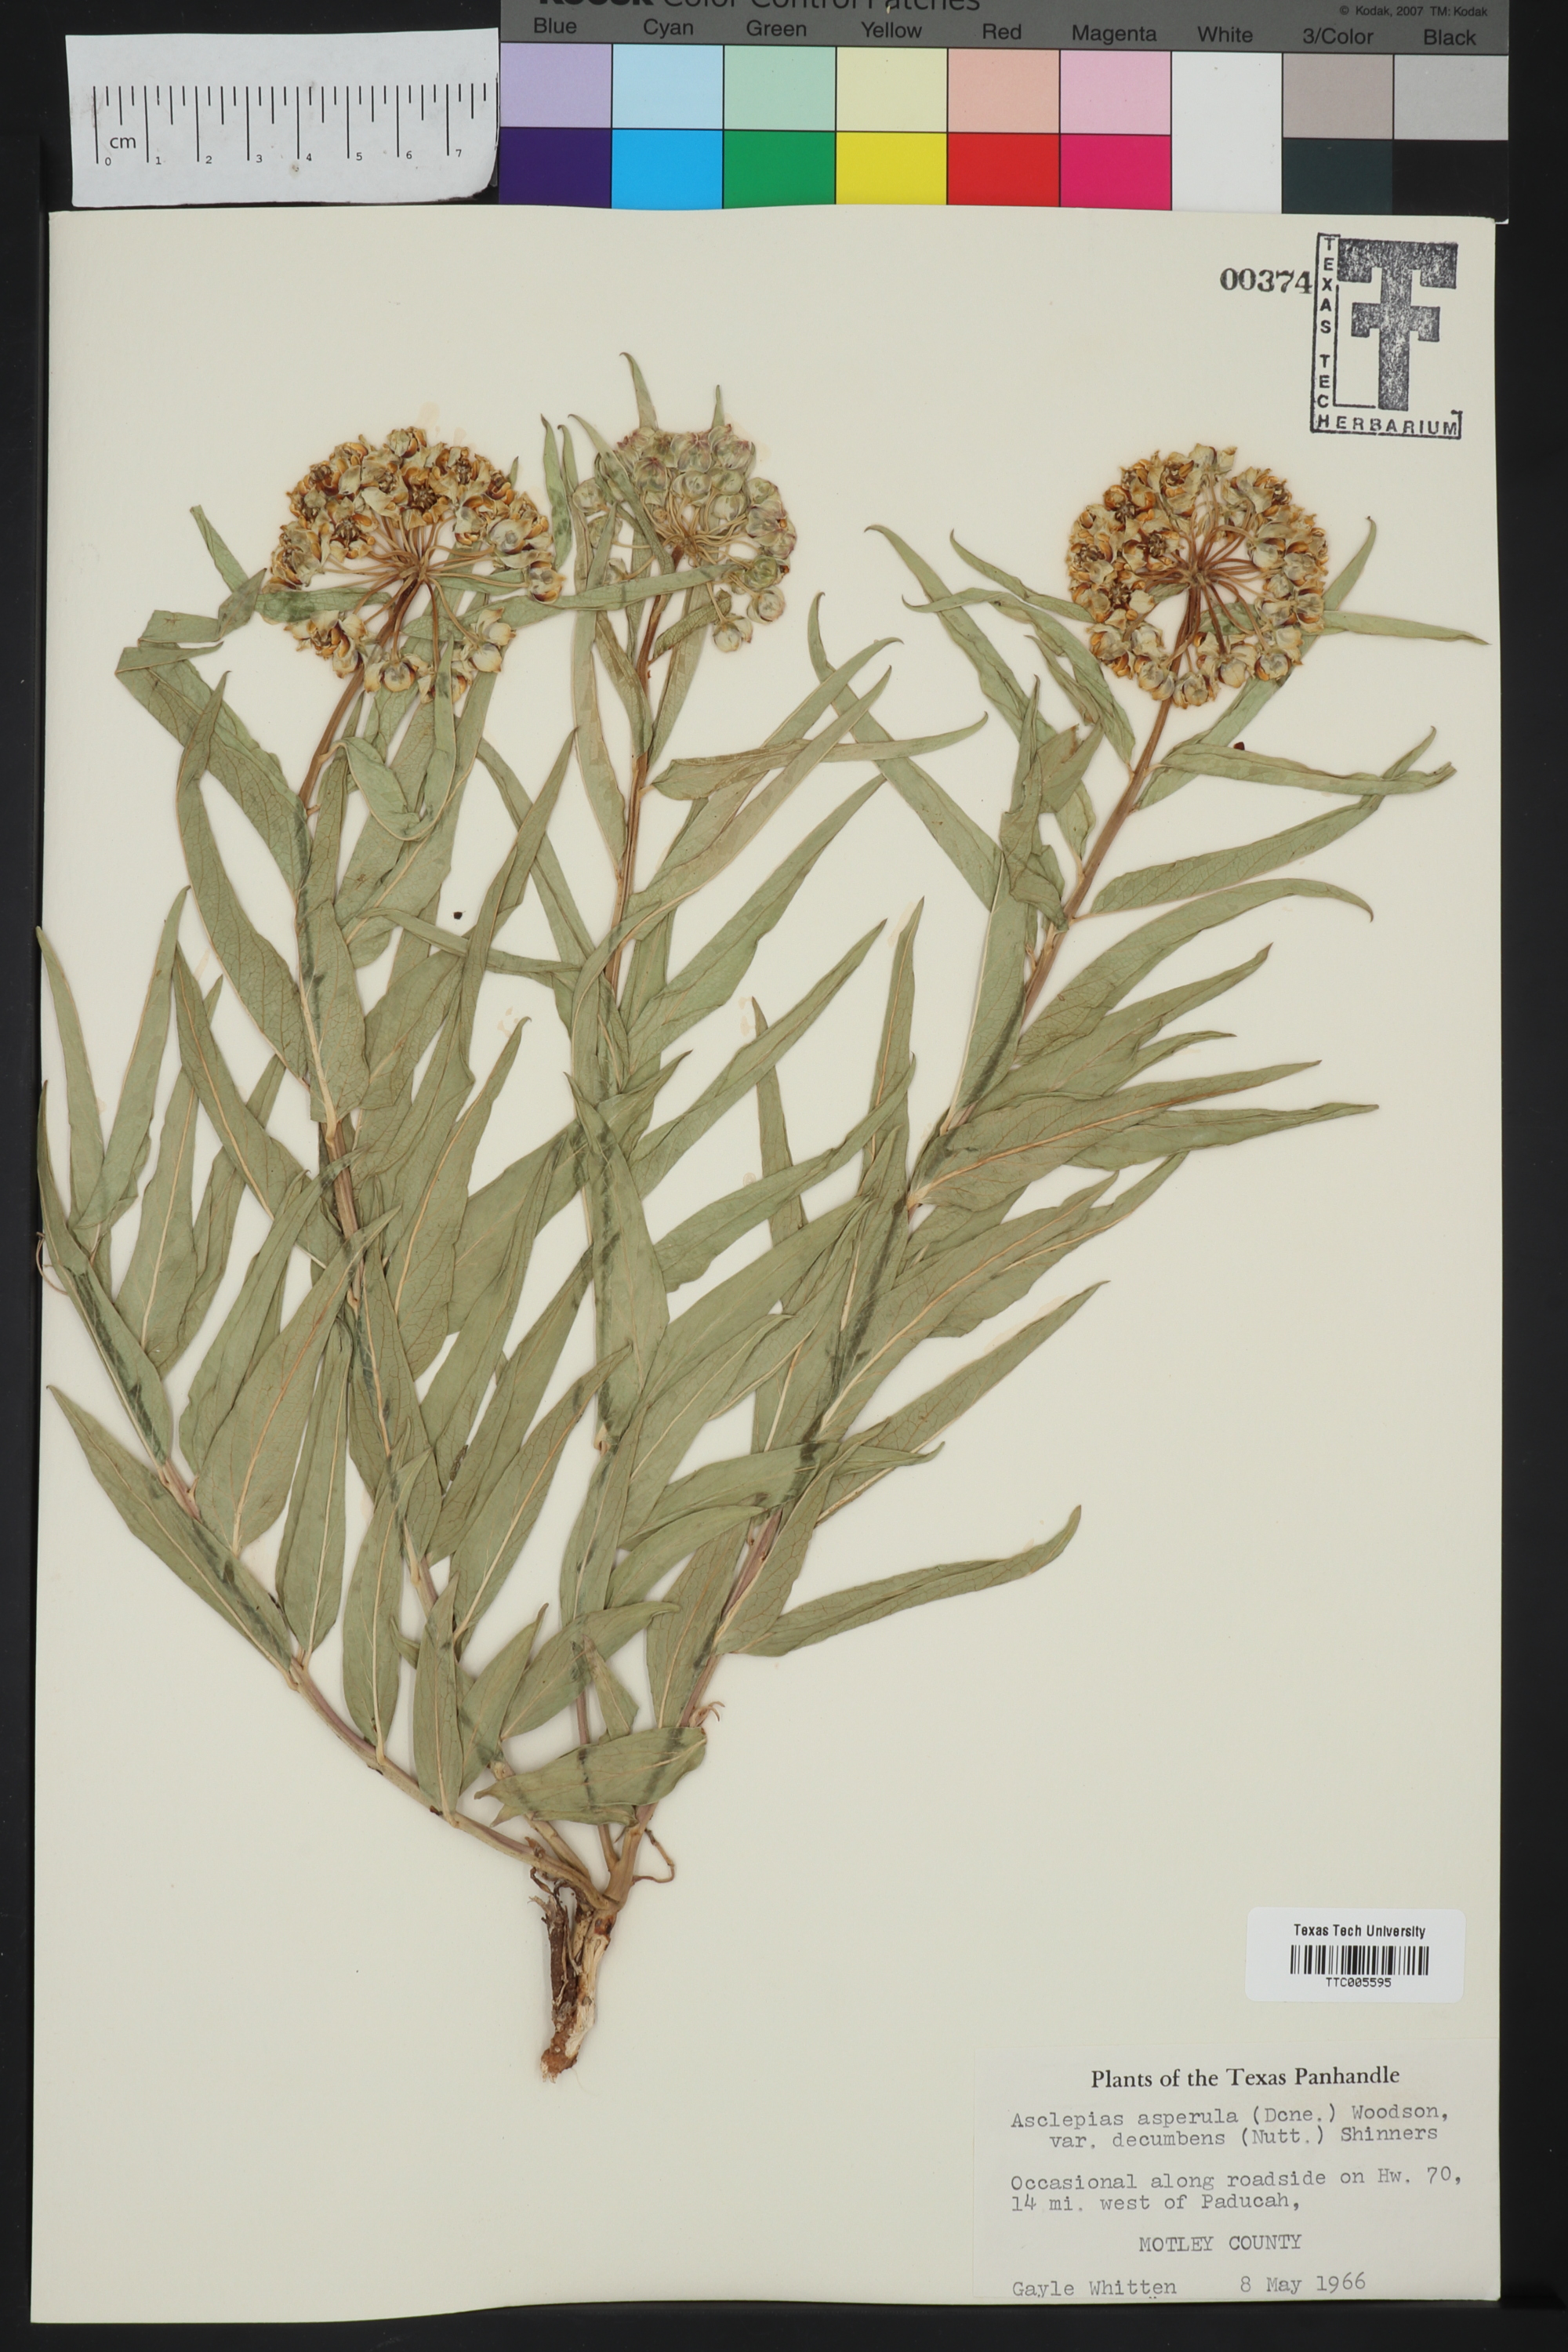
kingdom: Plantae
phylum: Tracheophyta
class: Magnoliopsida
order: Gentianales
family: Apocynaceae
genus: Asclepias
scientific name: Asclepias asperula
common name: Antelope horns
